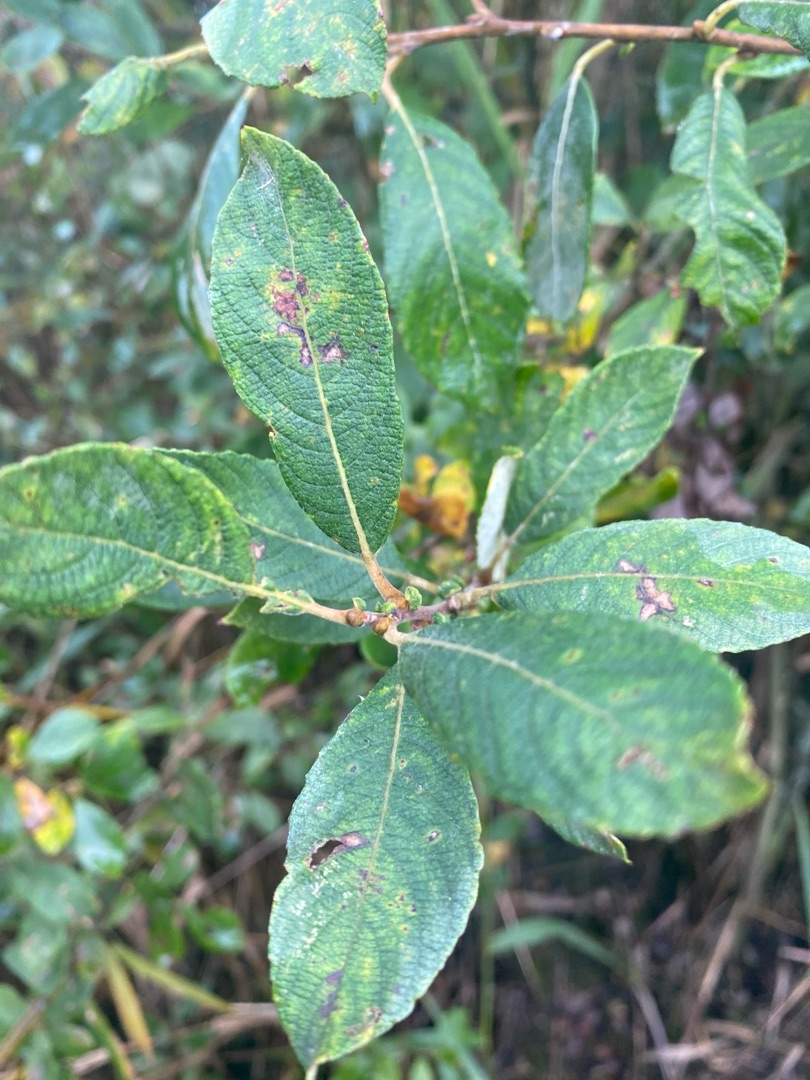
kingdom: Plantae
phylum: Tracheophyta
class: Magnoliopsida
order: Malpighiales
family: Salicaceae
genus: Salix
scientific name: Salix cinerea
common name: Grå-pil
